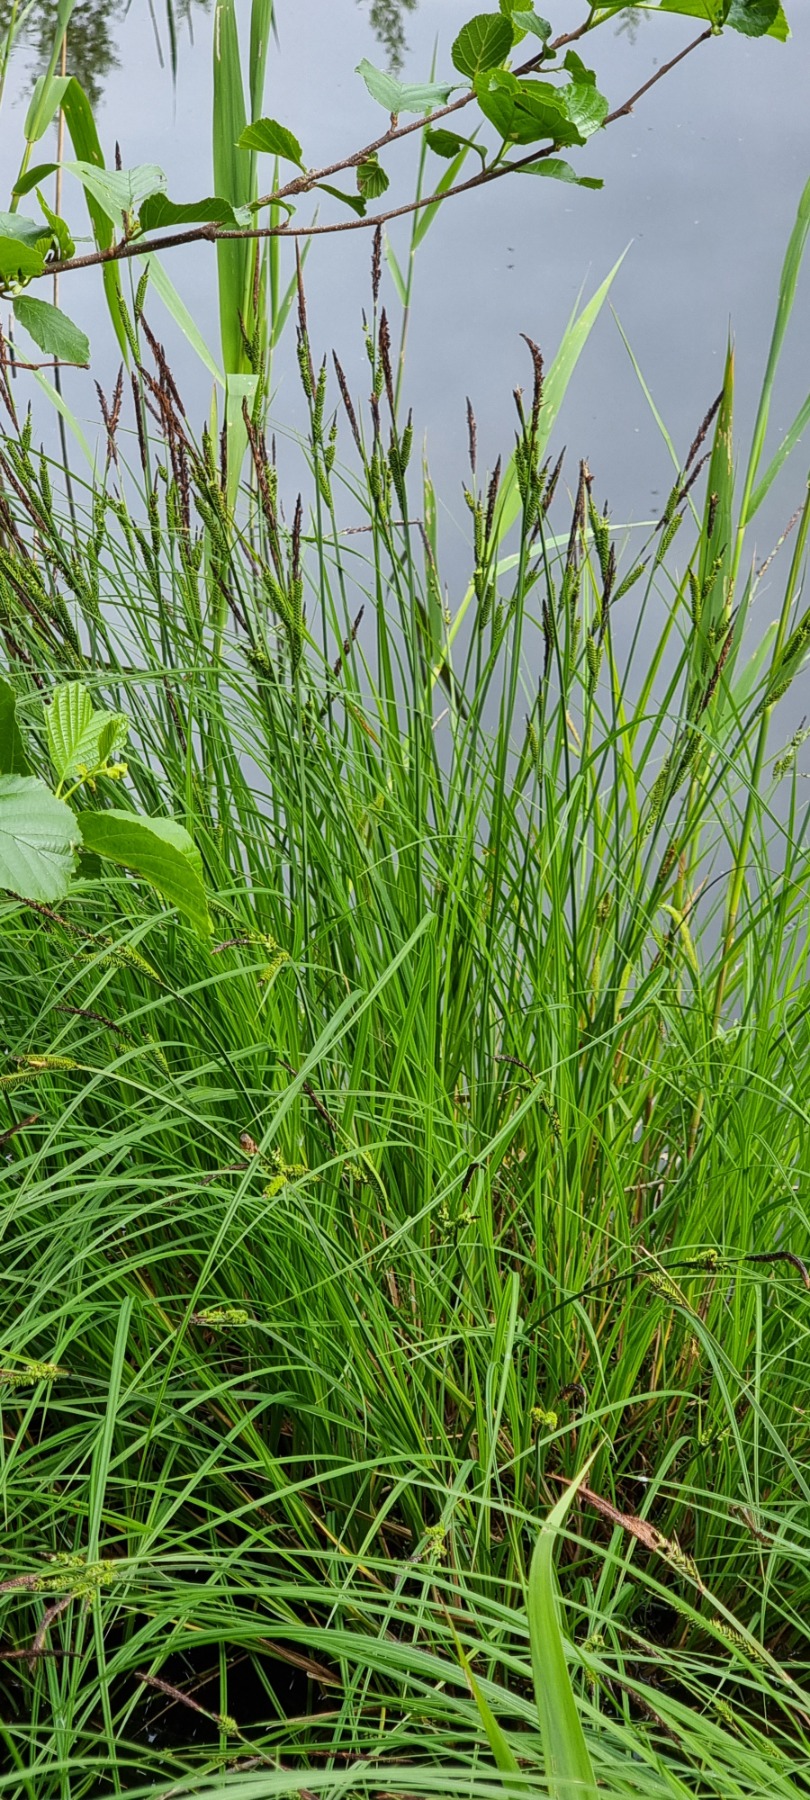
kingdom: Plantae
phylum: Tracheophyta
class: Liliopsida
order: Poales
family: Cyperaceae
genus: Carex
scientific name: Carex elata
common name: Stiv star
